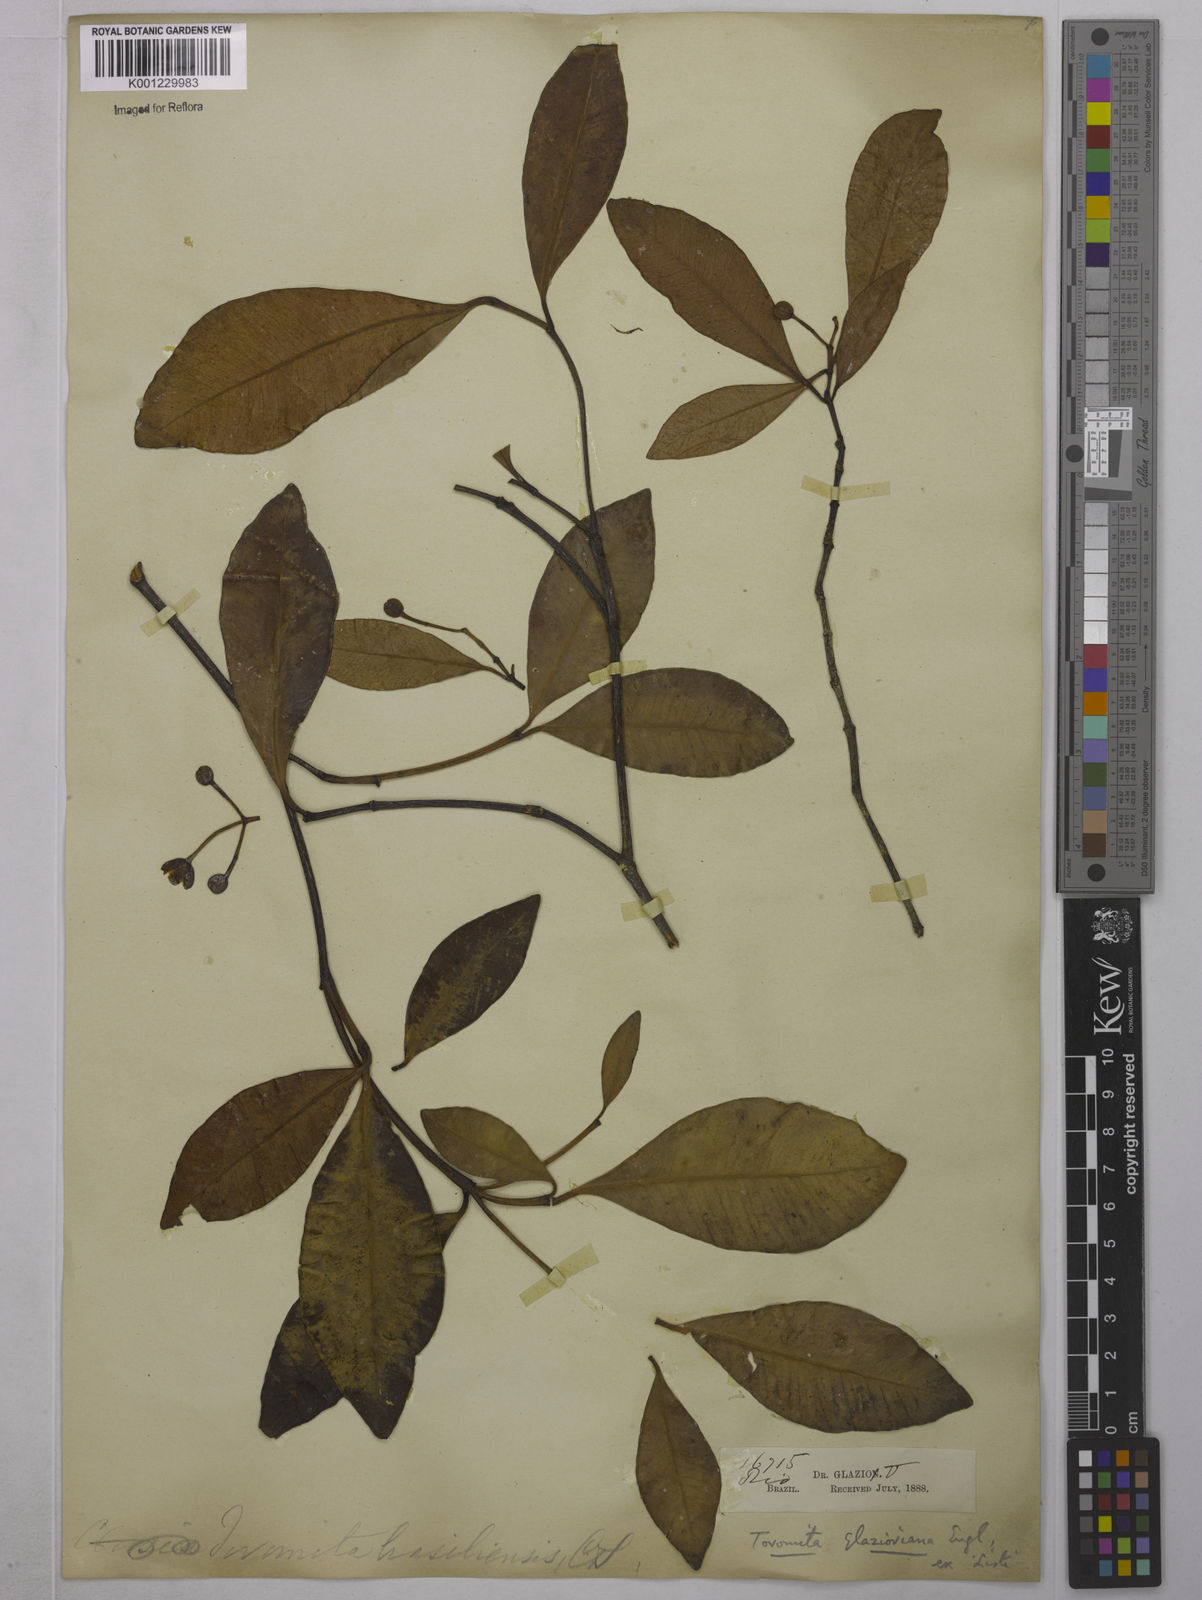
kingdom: Plantae
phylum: Tracheophyta
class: Magnoliopsida
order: Malpighiales
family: Clusiaceae
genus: Tovomita
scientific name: Tovomita glazioviana
